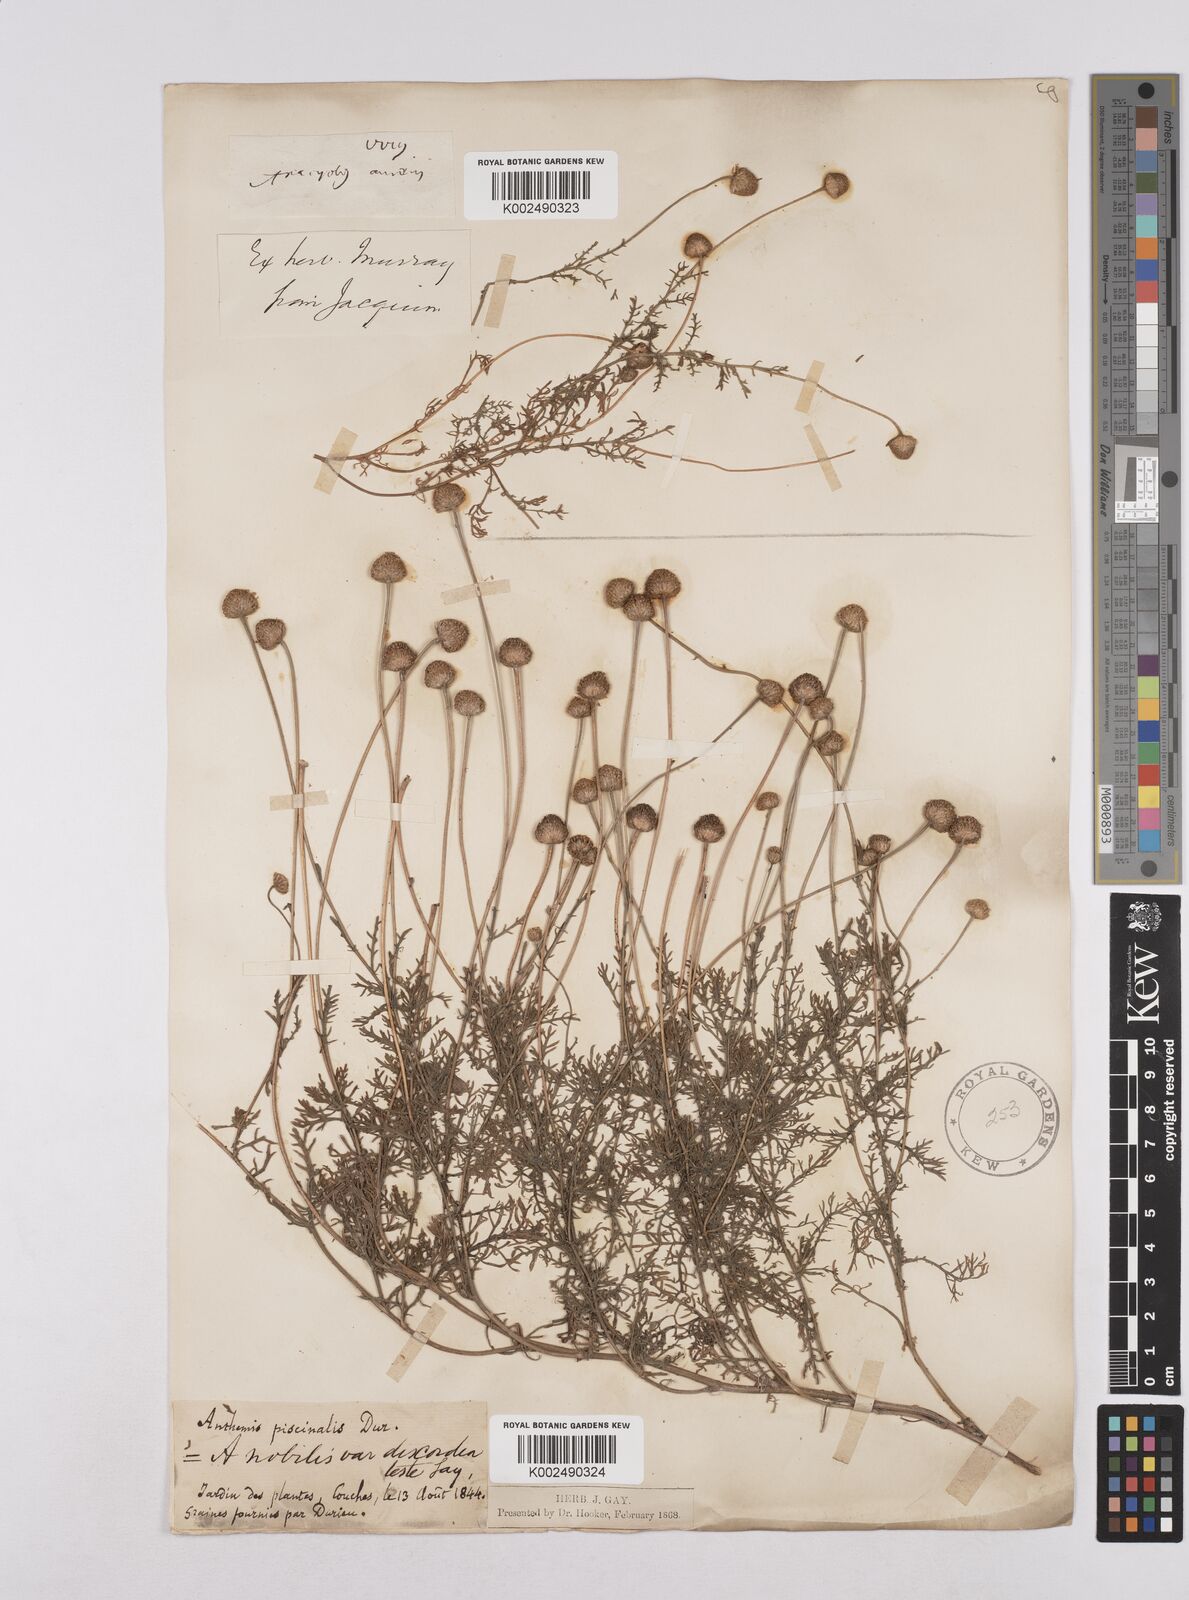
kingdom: Plantae
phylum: Tracheophyta
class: Magnoliopsida
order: Asterales
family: Asteraceae
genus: Matricaria
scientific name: Matricaria chamomilla
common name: Scented mayweed
